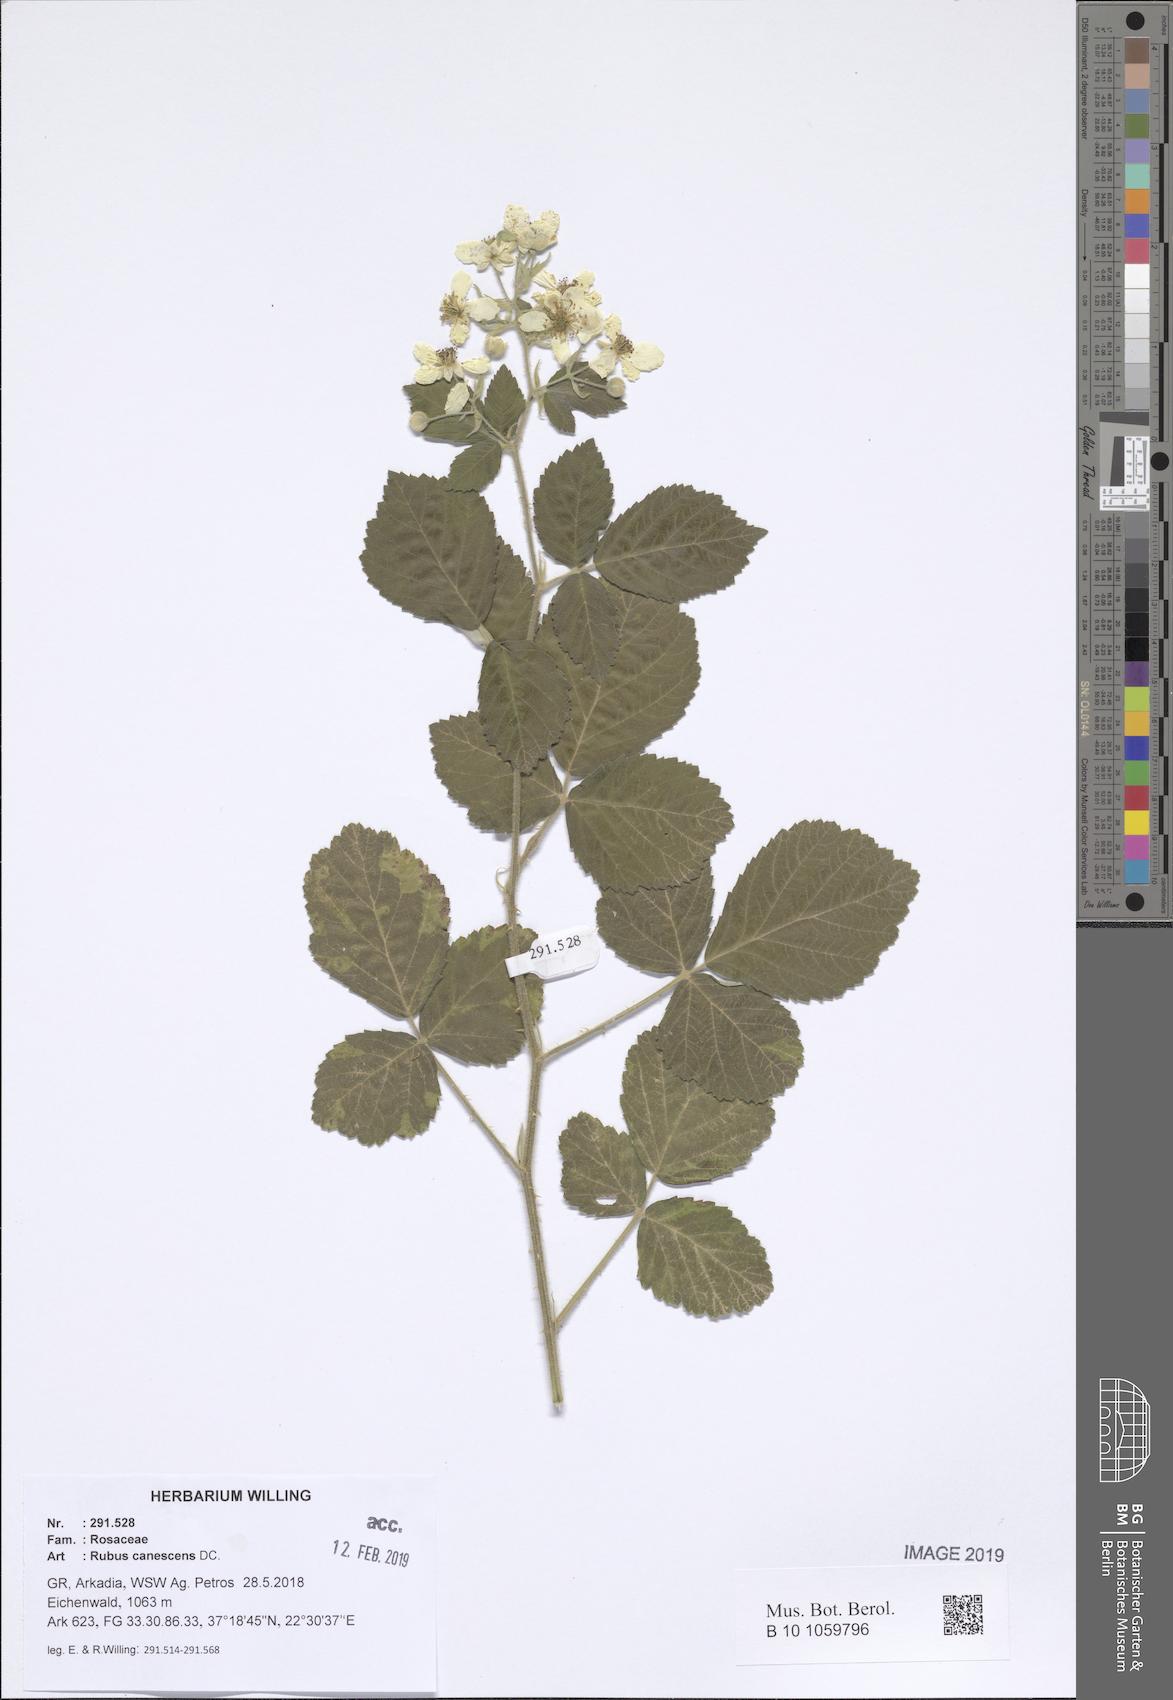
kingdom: Plantae
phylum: Tracheophyta
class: Magnoliopsida
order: Rosales
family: Rosaceae
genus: Rubus
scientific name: Rubus canescens
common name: Wooly blackberry
